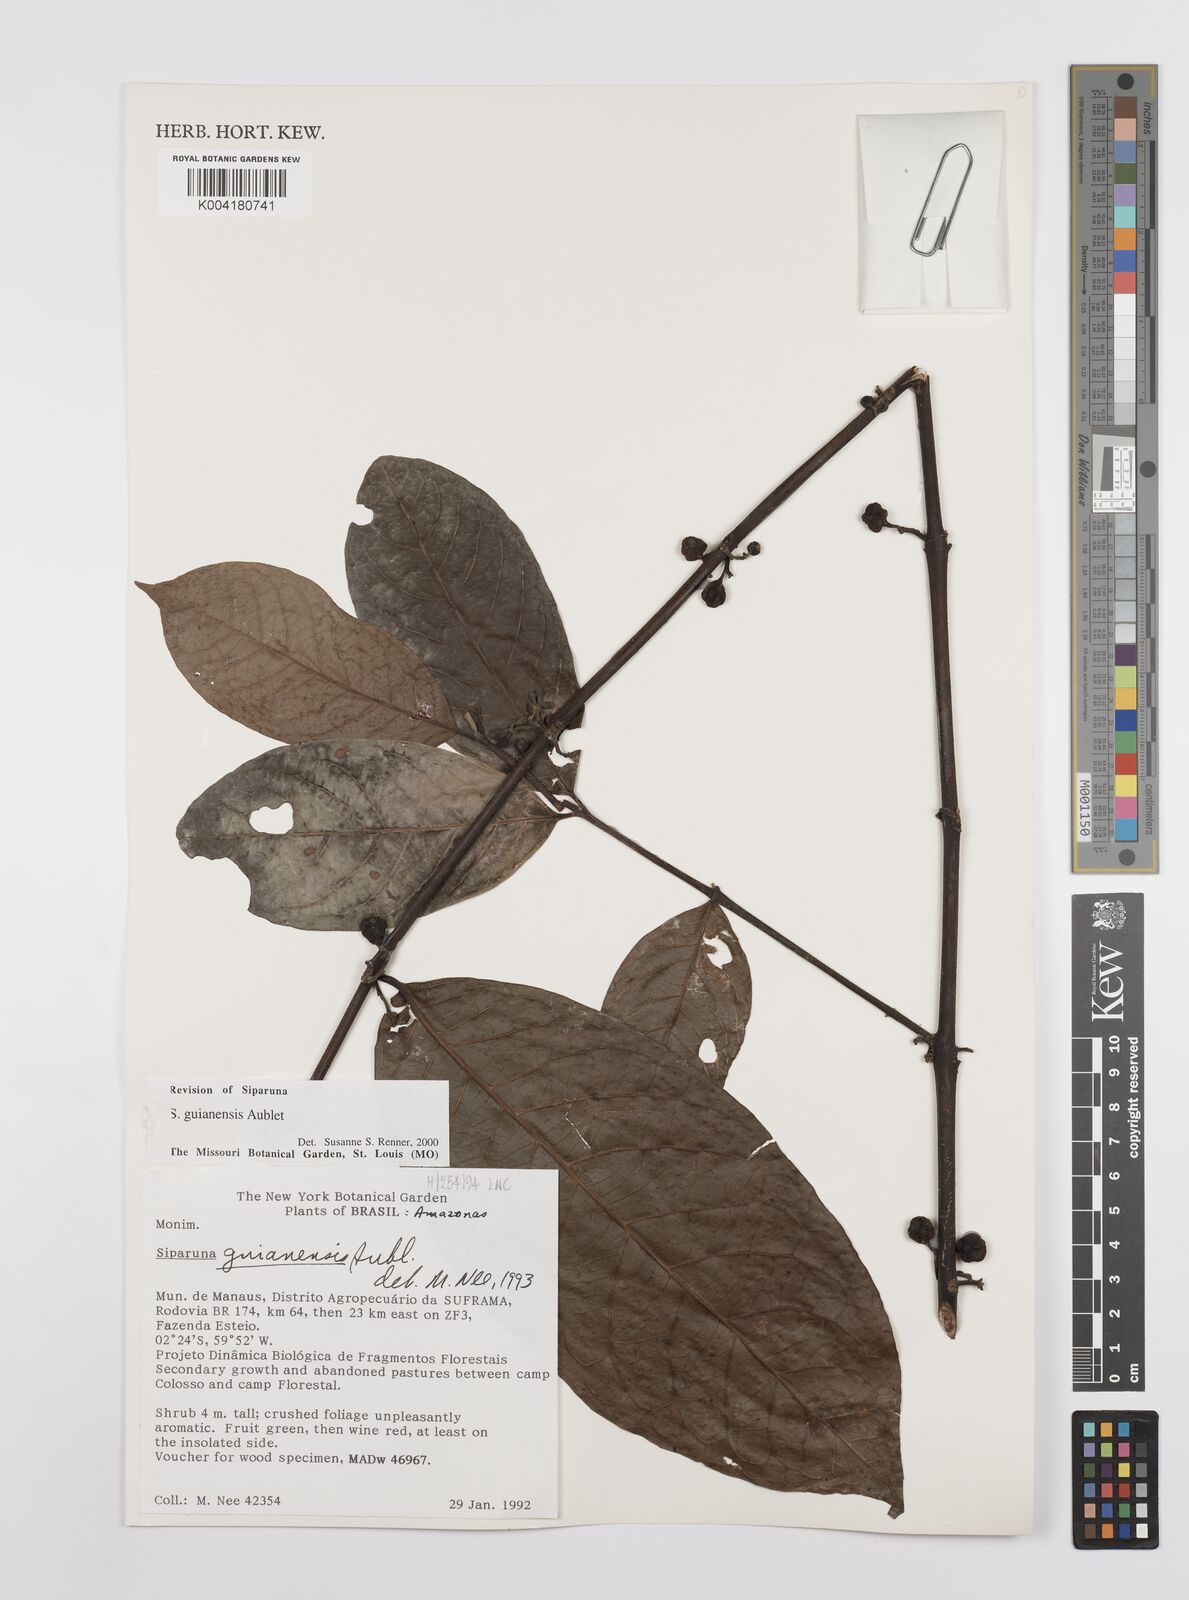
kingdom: Plantae
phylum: Tracheophyta
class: Magnoliopsida
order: Laurales
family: Siparunaceae
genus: Siparuna
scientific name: Siparuna guianensis
